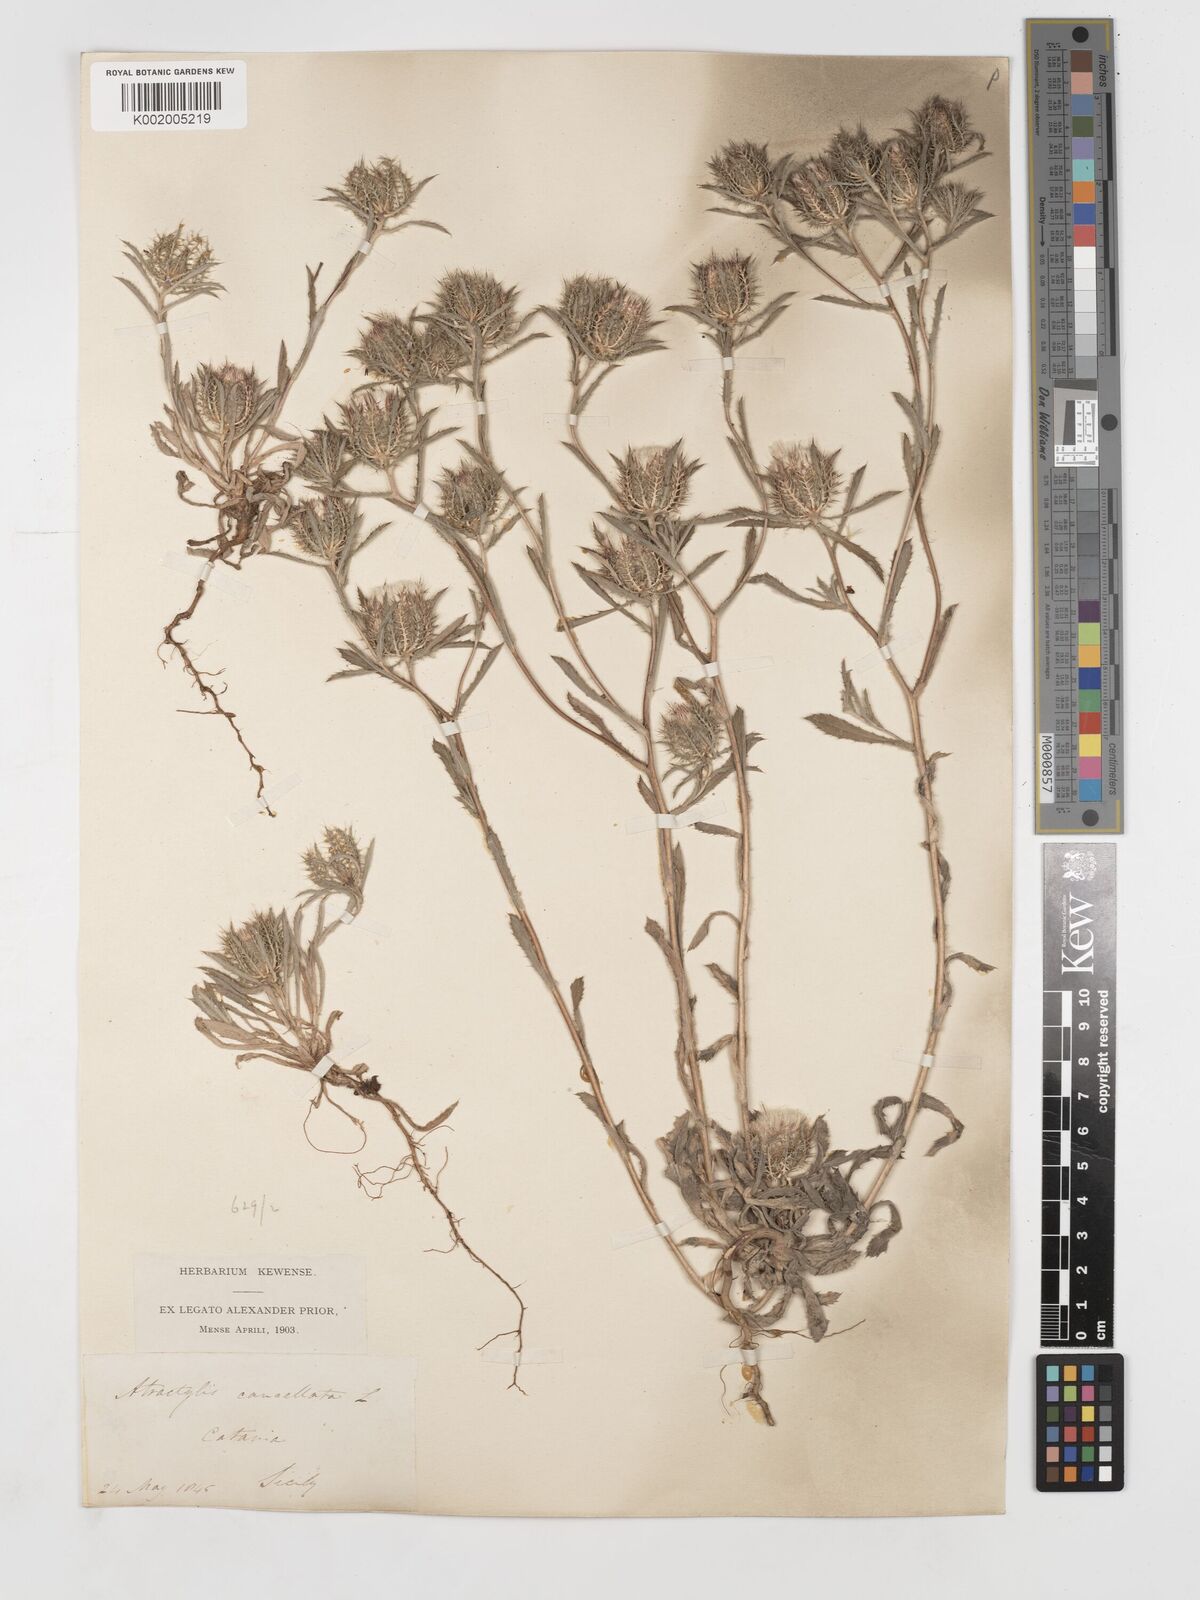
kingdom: Plantae
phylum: Tracheophyta
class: Magnoliopsida
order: Asterales
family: Asteraceae
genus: Atractylis
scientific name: Atractylis cancellata
